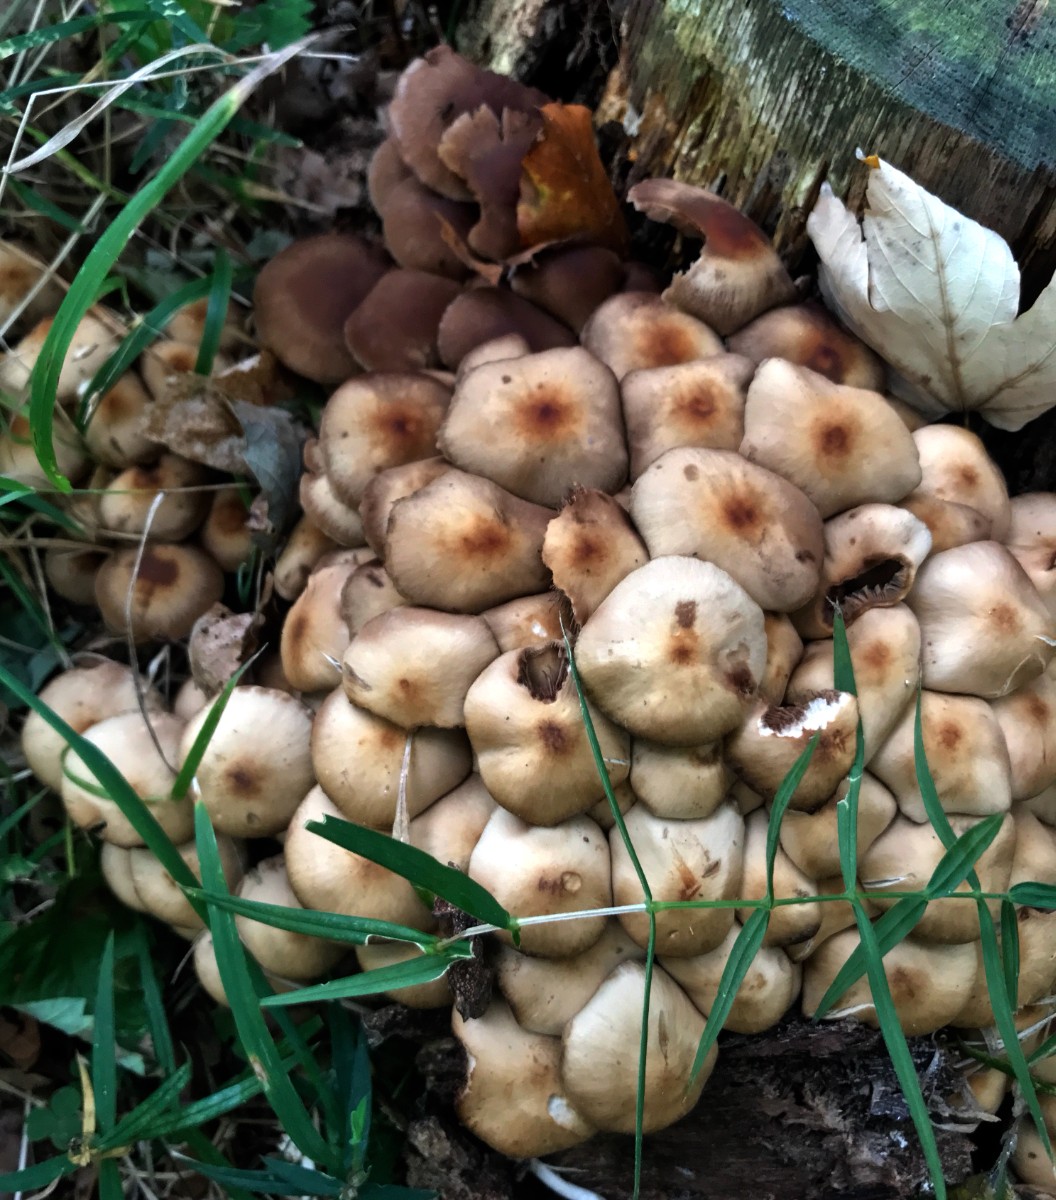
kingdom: Fungi
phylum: Basidiomycota
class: Agaricomycetes
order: Agaricales
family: Psathyrellaceae
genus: Psathyrella
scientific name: Psathyrella piluliformis
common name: lysstokket mørkhat
